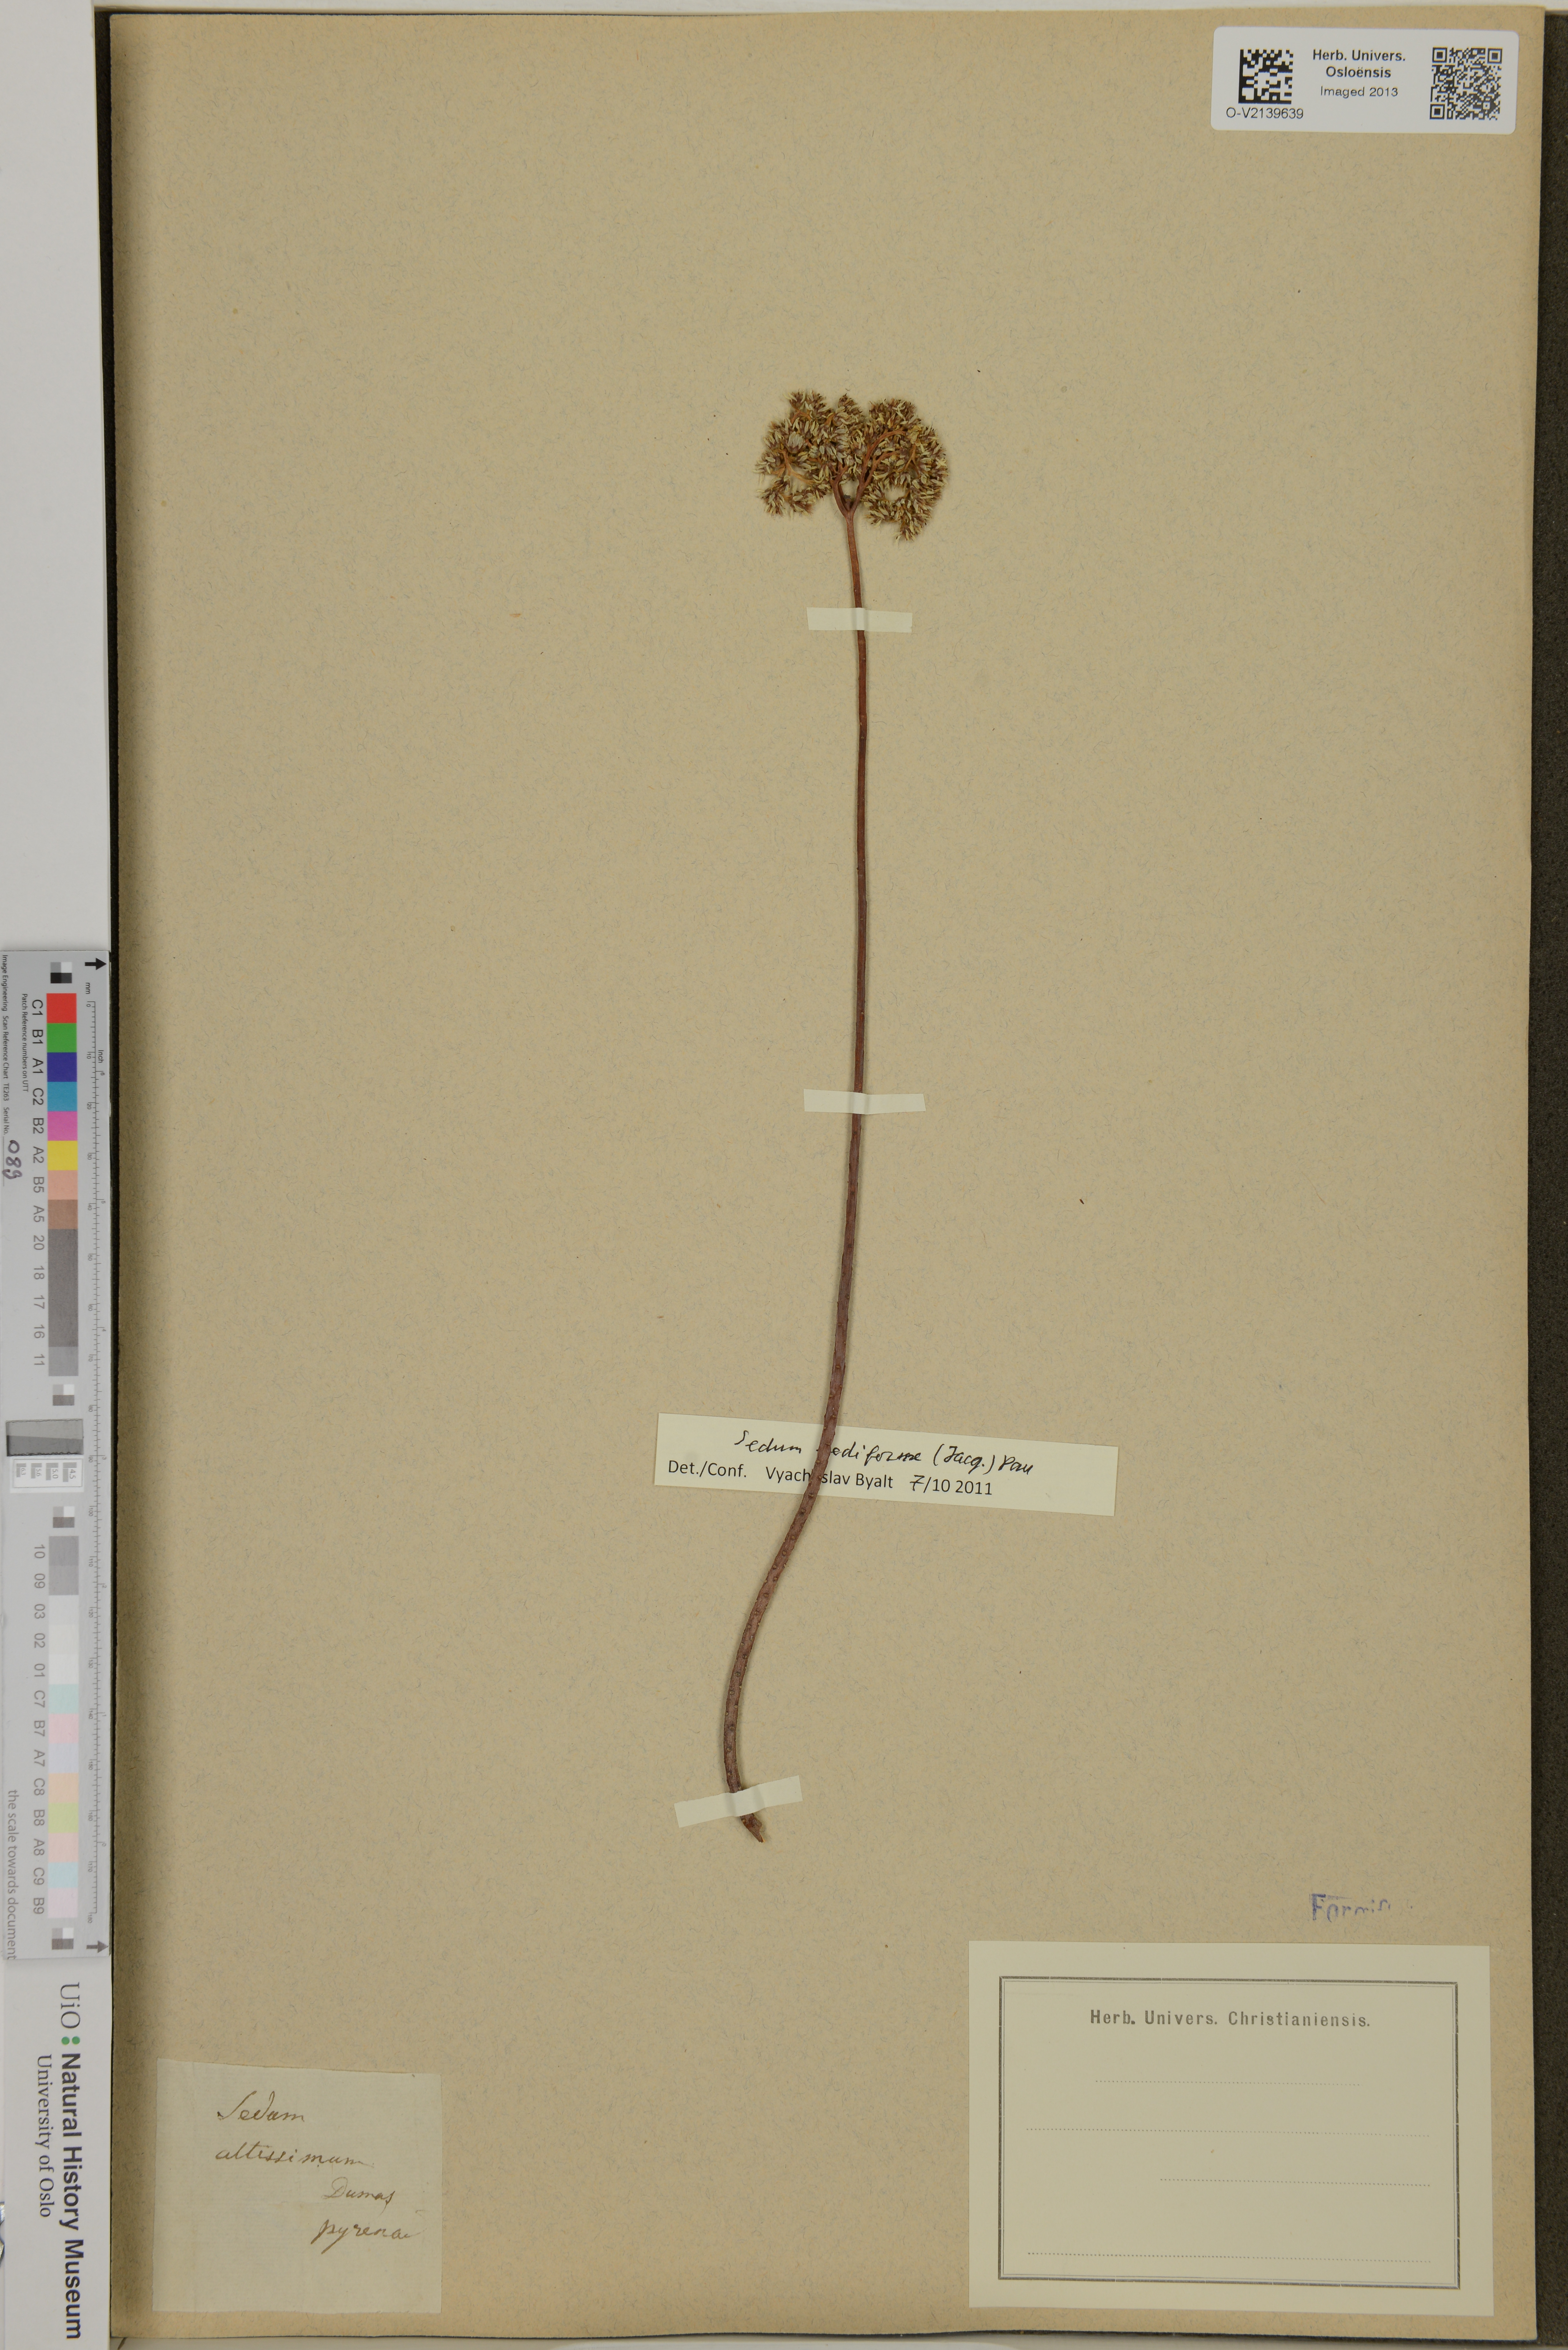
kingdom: Plantae
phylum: Tracheophyta
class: Magnoliopsida
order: Saxifragales
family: Crassulaceae
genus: Sedum
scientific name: Sedum crassularia
